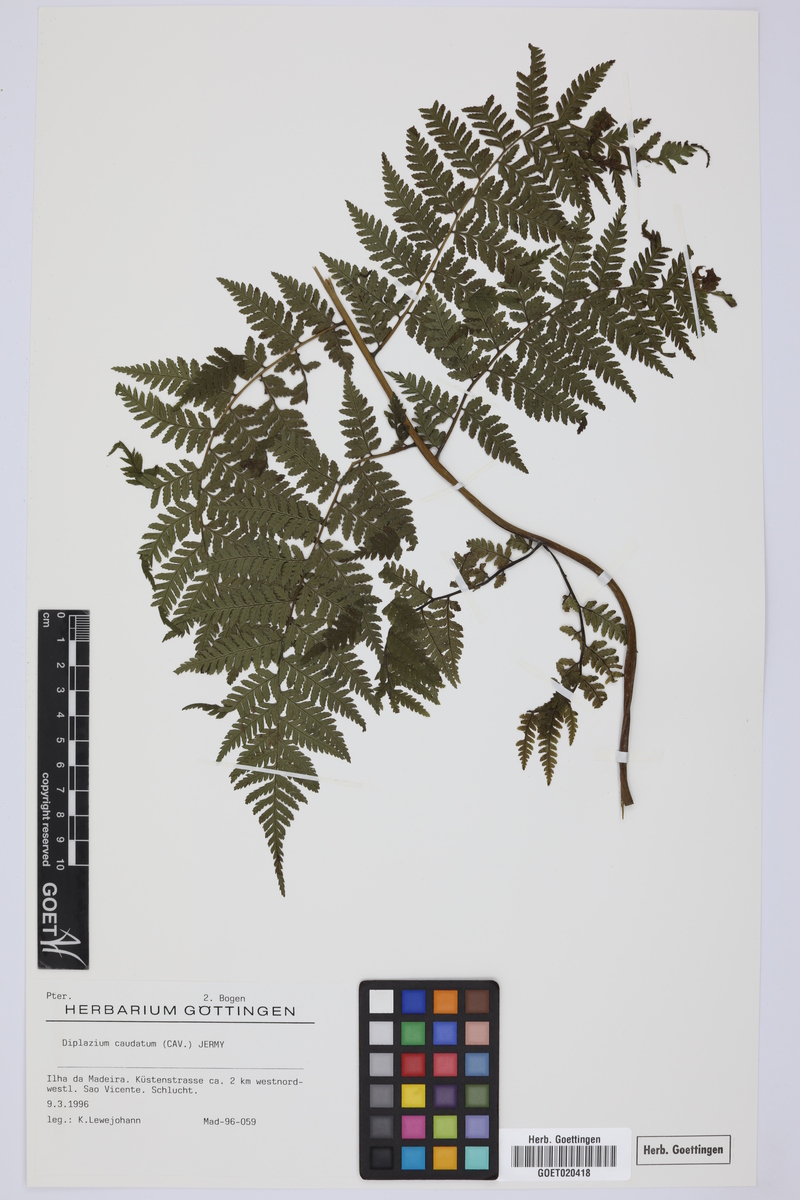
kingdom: Plantae
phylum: Tracheophyta
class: Polypodiopsida
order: Polypodiales
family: Athyriaceae
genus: Diplazium
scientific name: Diplazium caudatum
